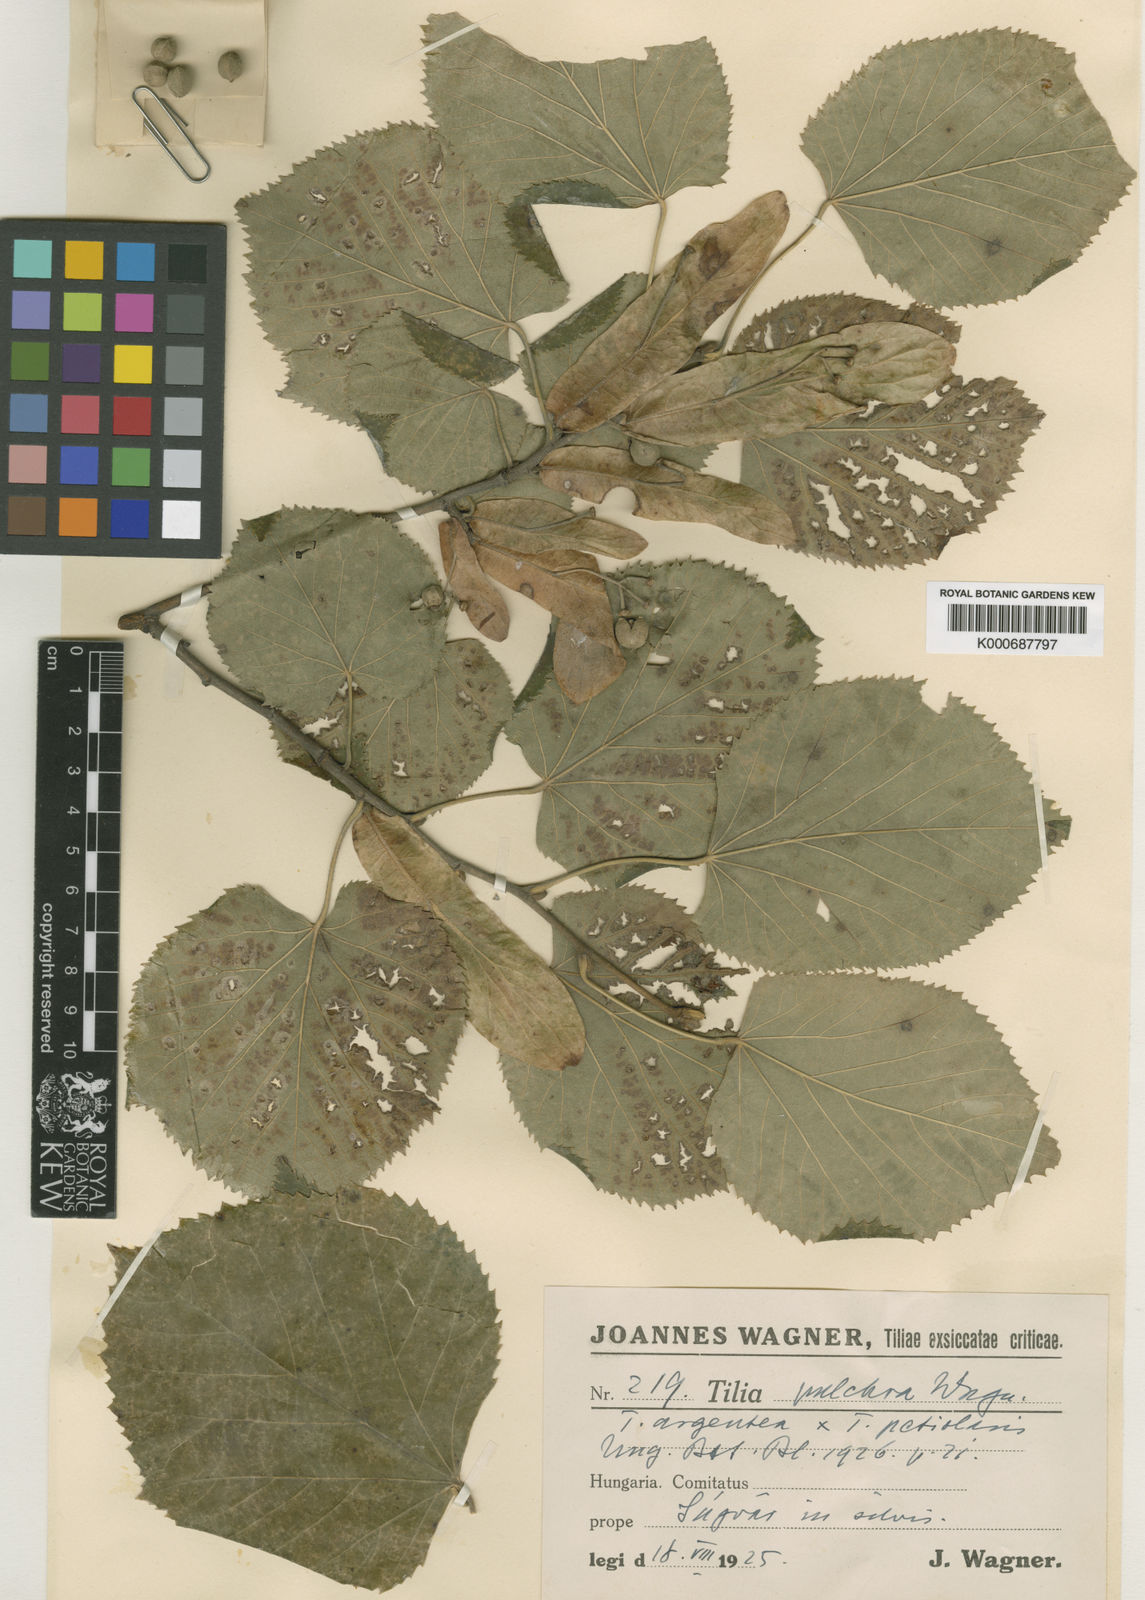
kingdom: Plantae
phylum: Tracheophyta
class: Magnoliopsida
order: Malvales
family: Malvaceae
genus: Tilia
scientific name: Tilia
